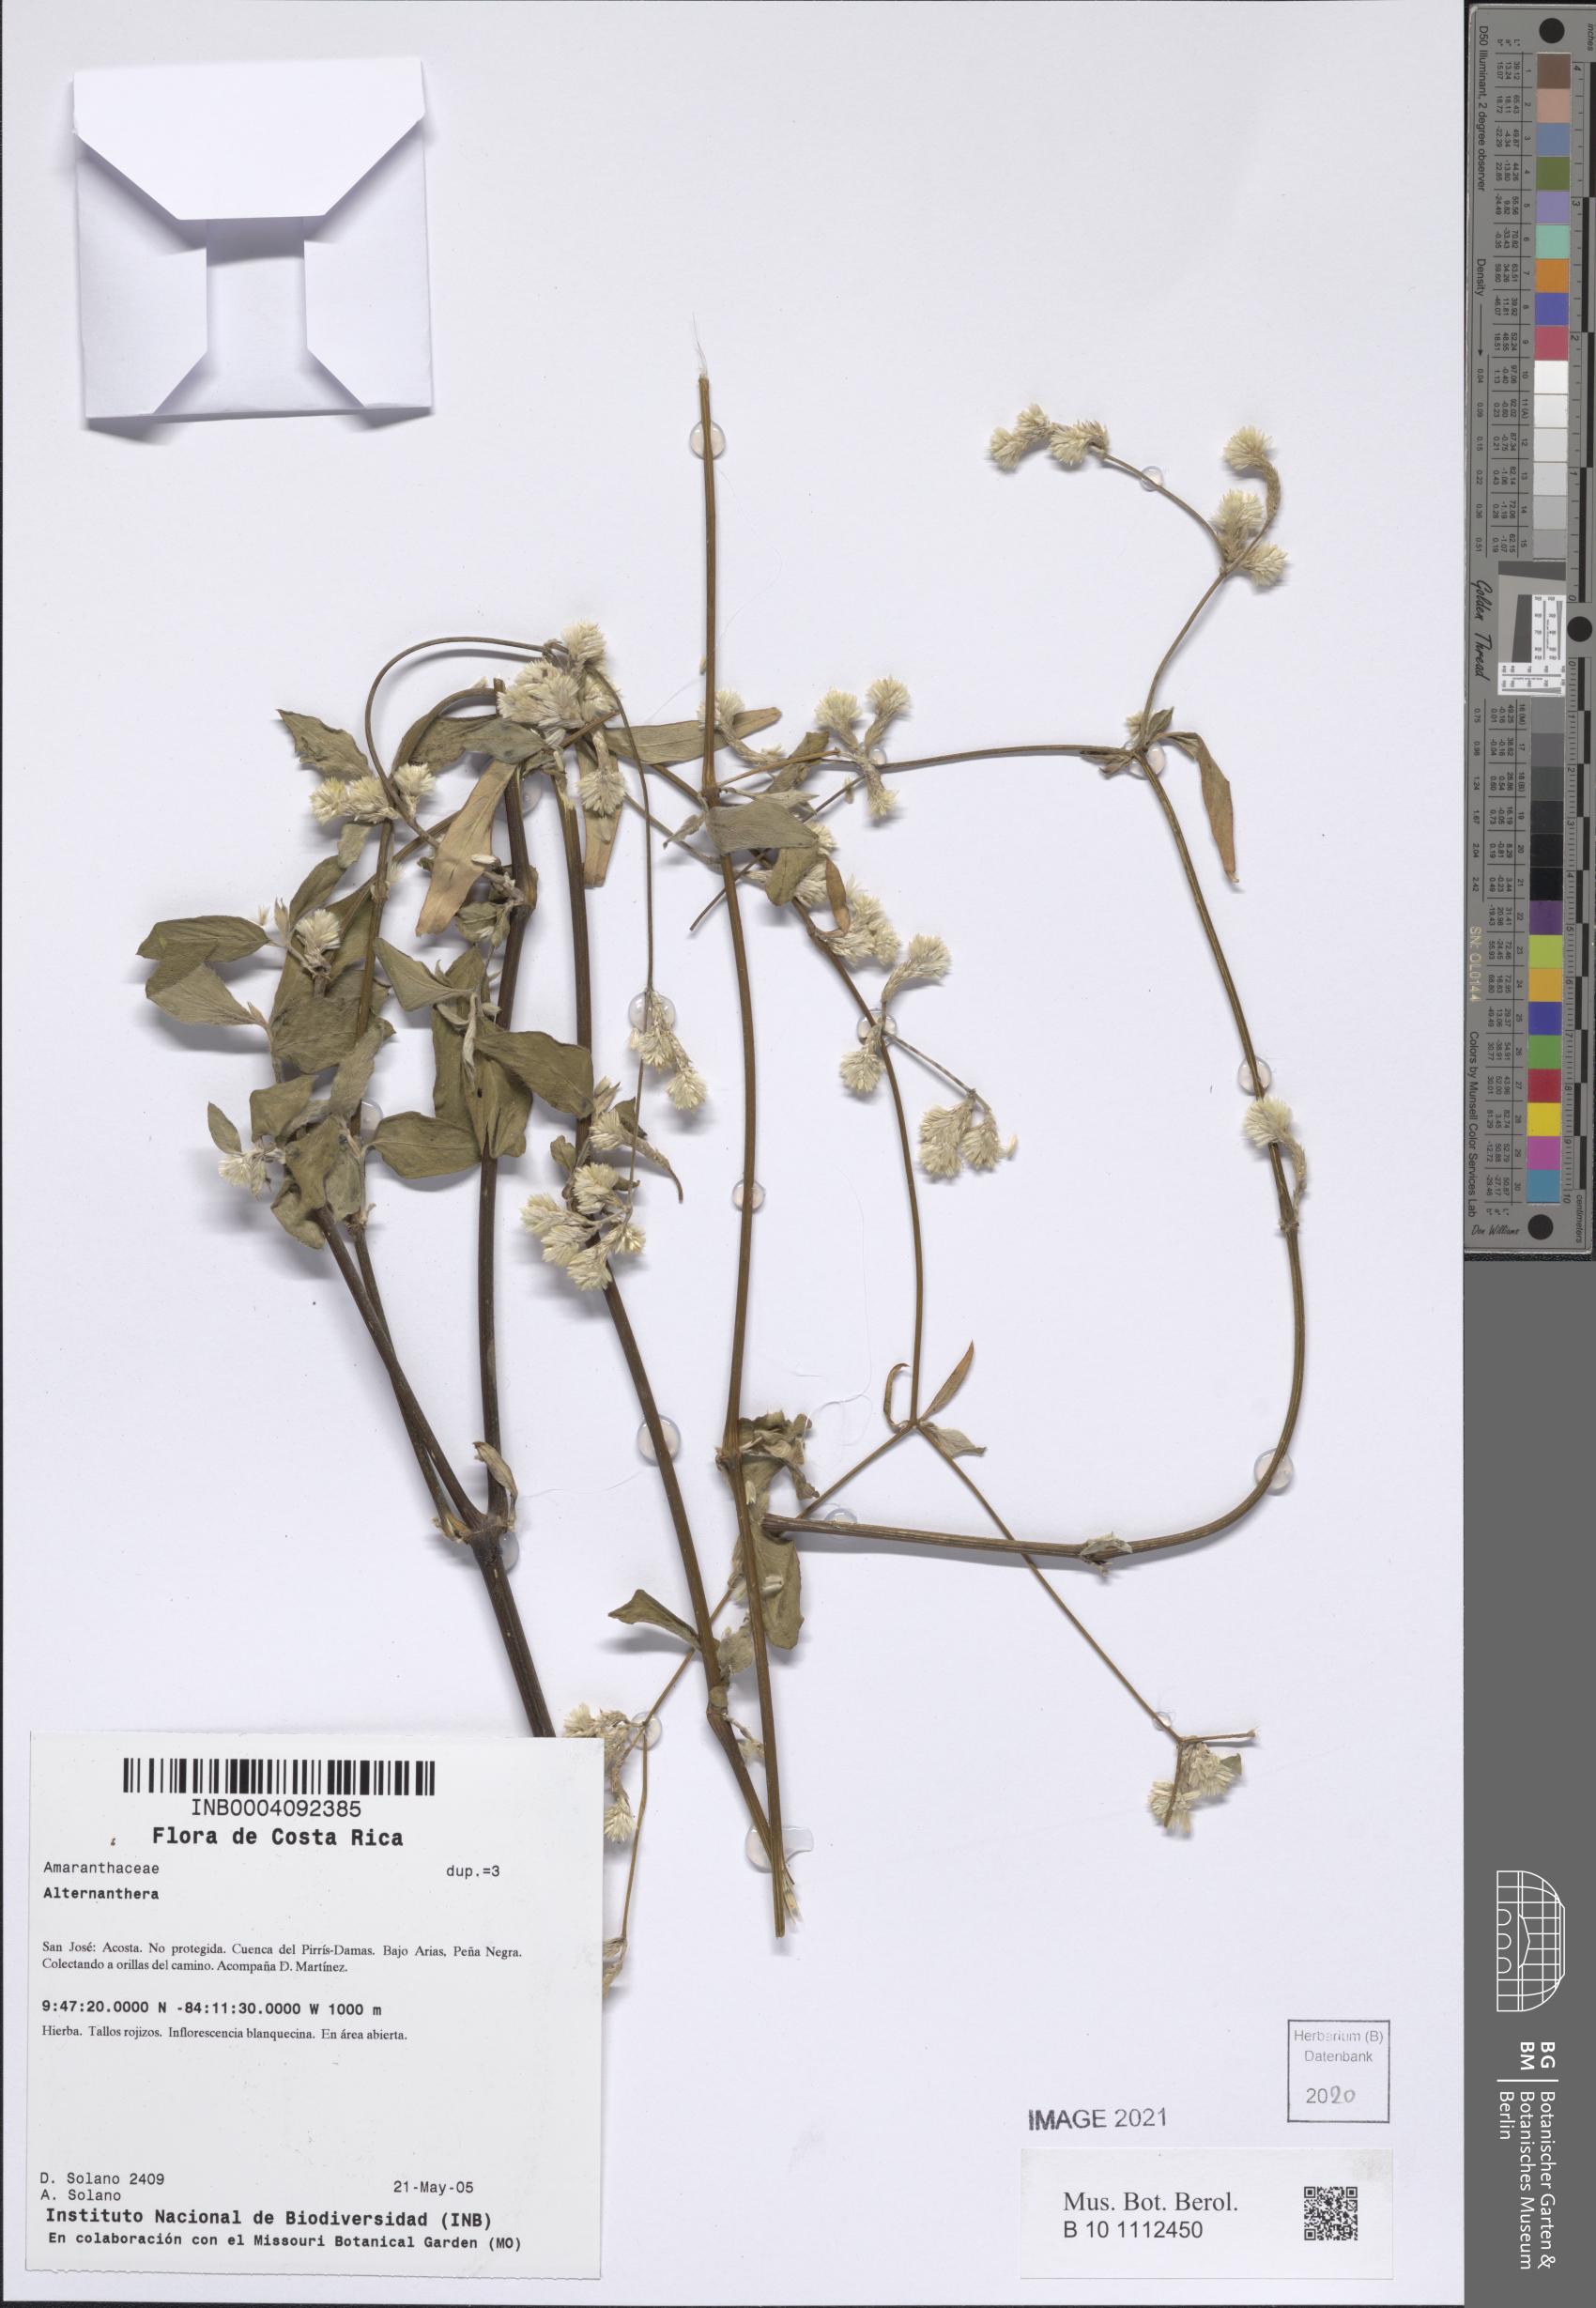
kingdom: Plantae
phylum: Tracheophyta
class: Magnoliopsida
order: Caryophyllales
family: Amaranthaceae
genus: Alternanthera
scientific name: Alternanthera
